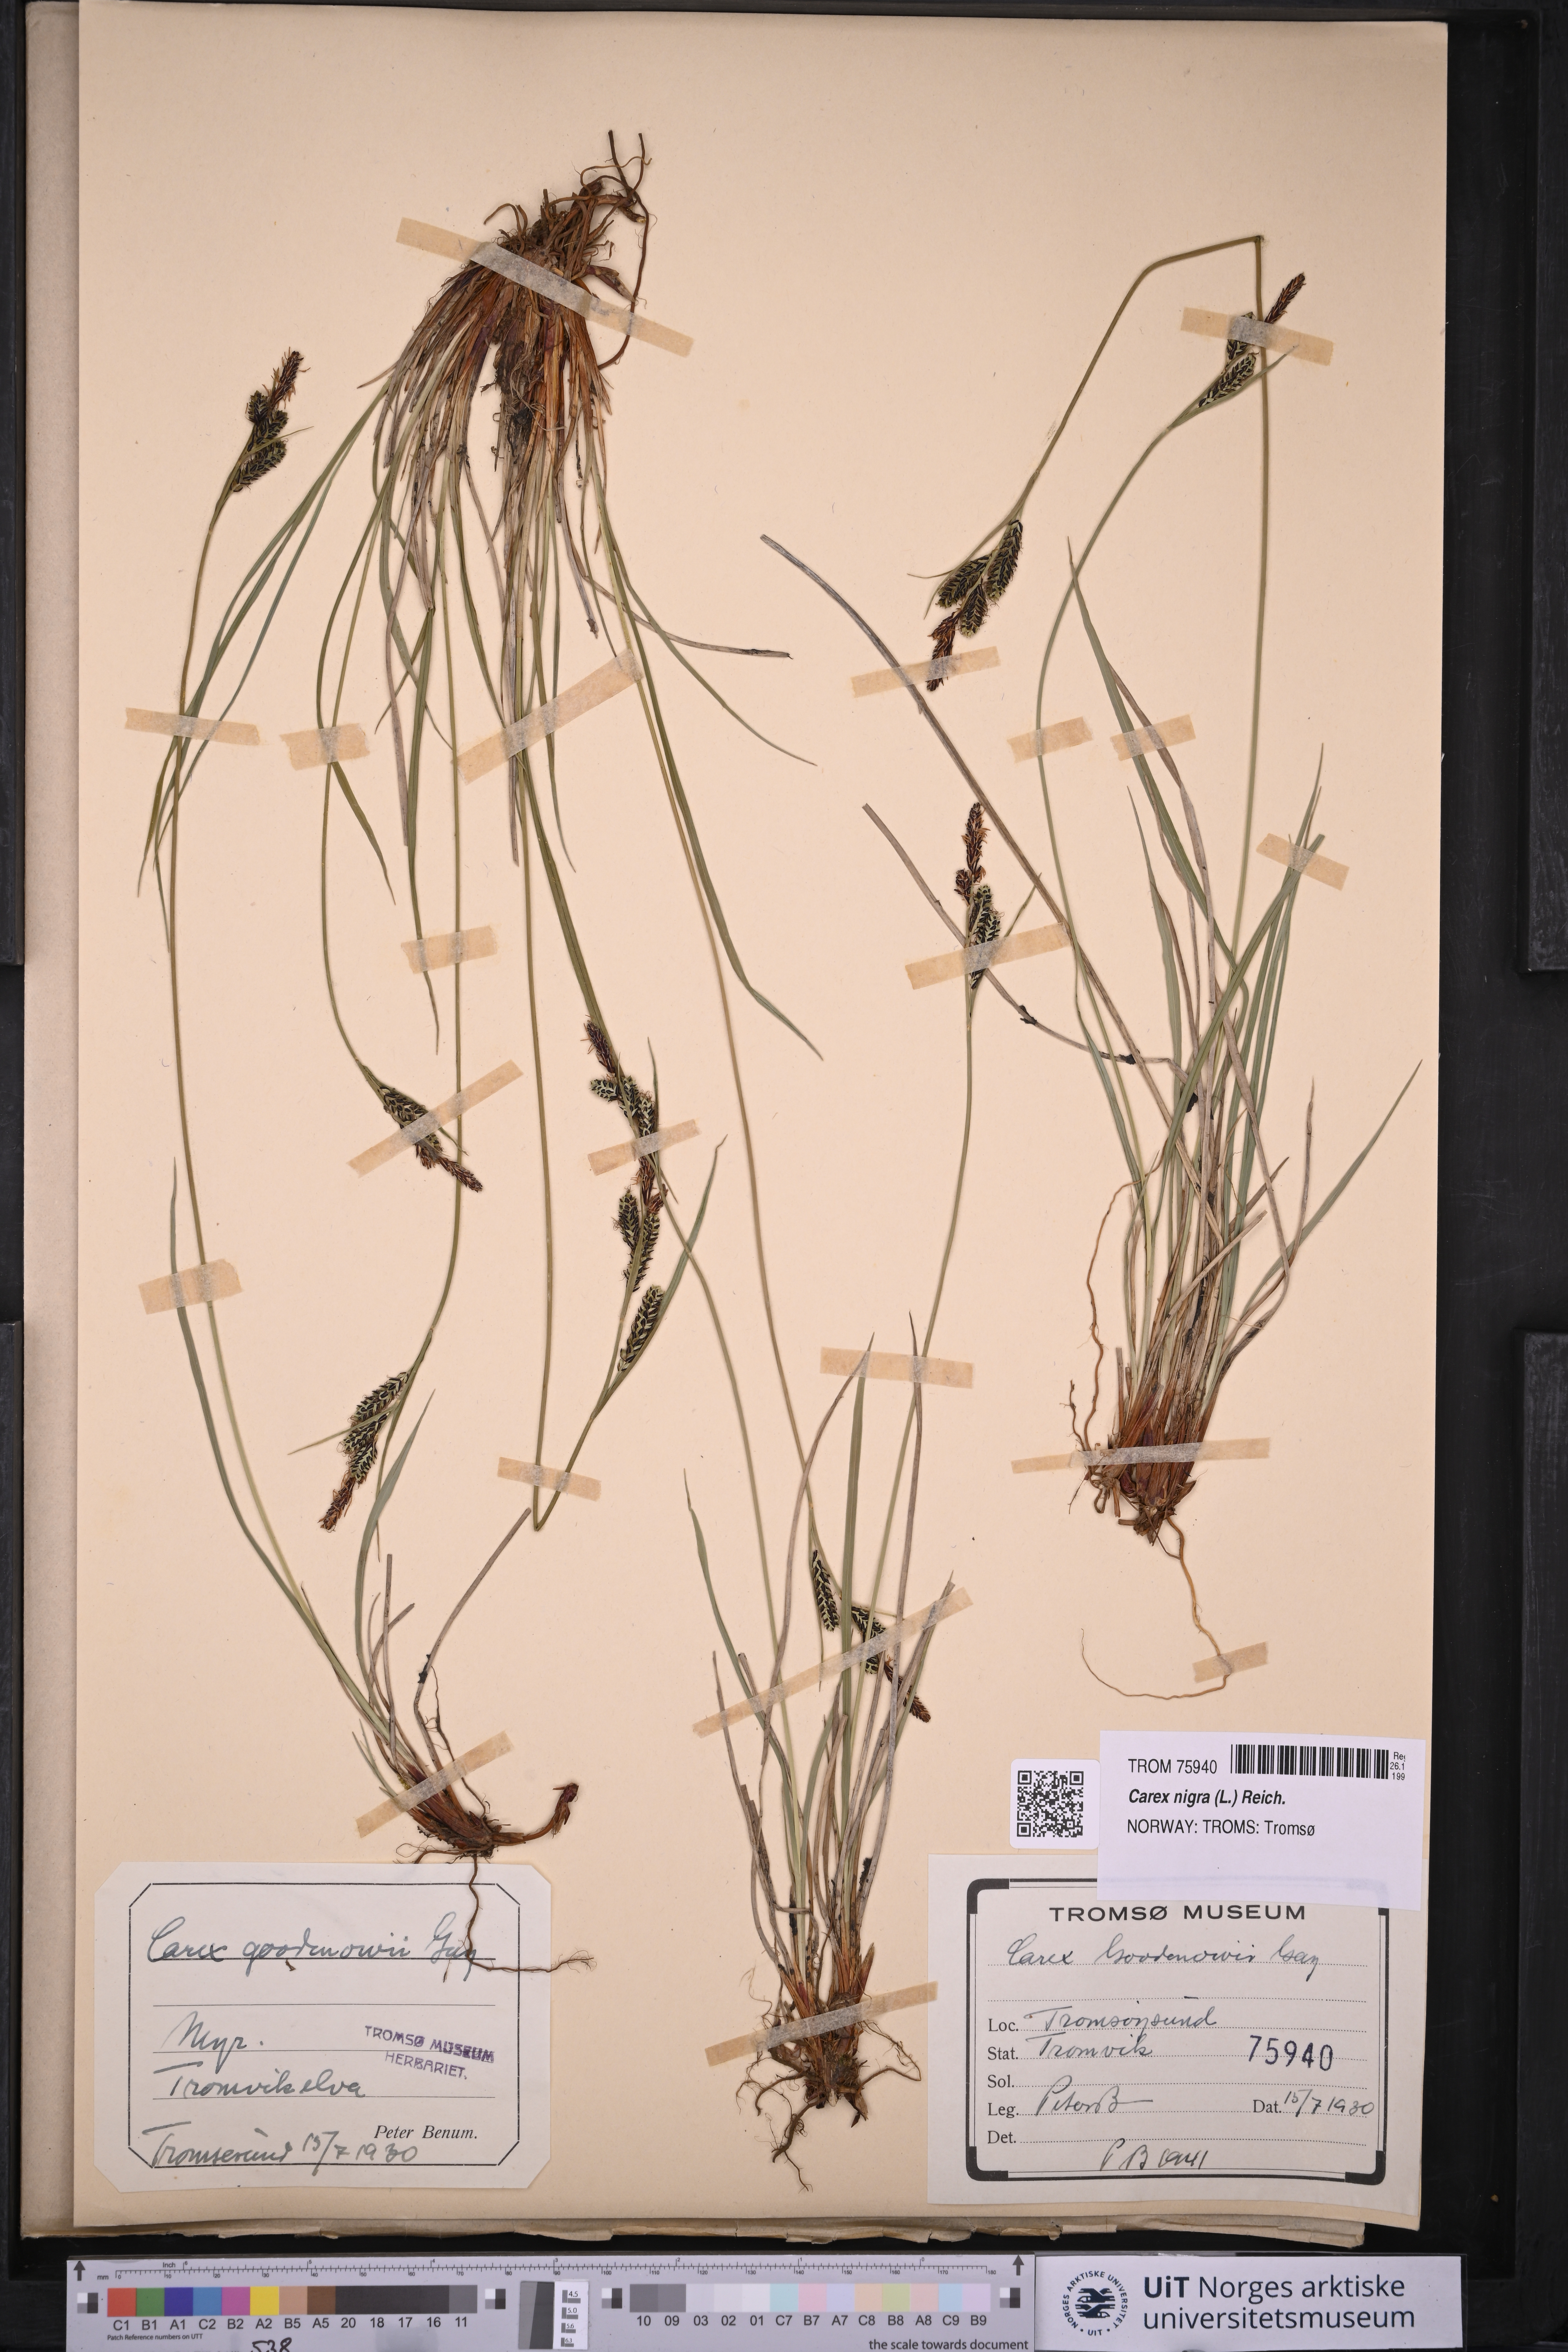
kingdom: Plantae
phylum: Tracheophyta
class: Liliopsida
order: Poales
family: Cyperaceae
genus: Carex
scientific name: Carex nigra
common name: Common sedge
